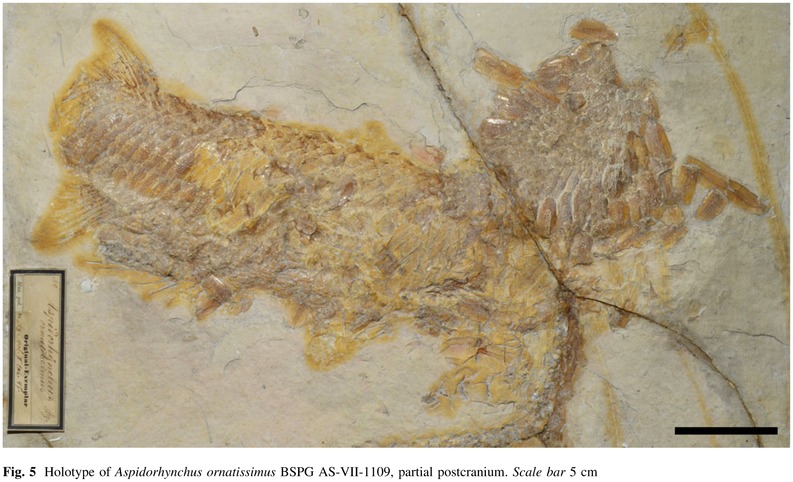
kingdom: Animalia
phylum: Chordata
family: Aspidorhynchidae
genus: Aspidorhynchus
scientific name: Aspidorhynchus ornatissimus
